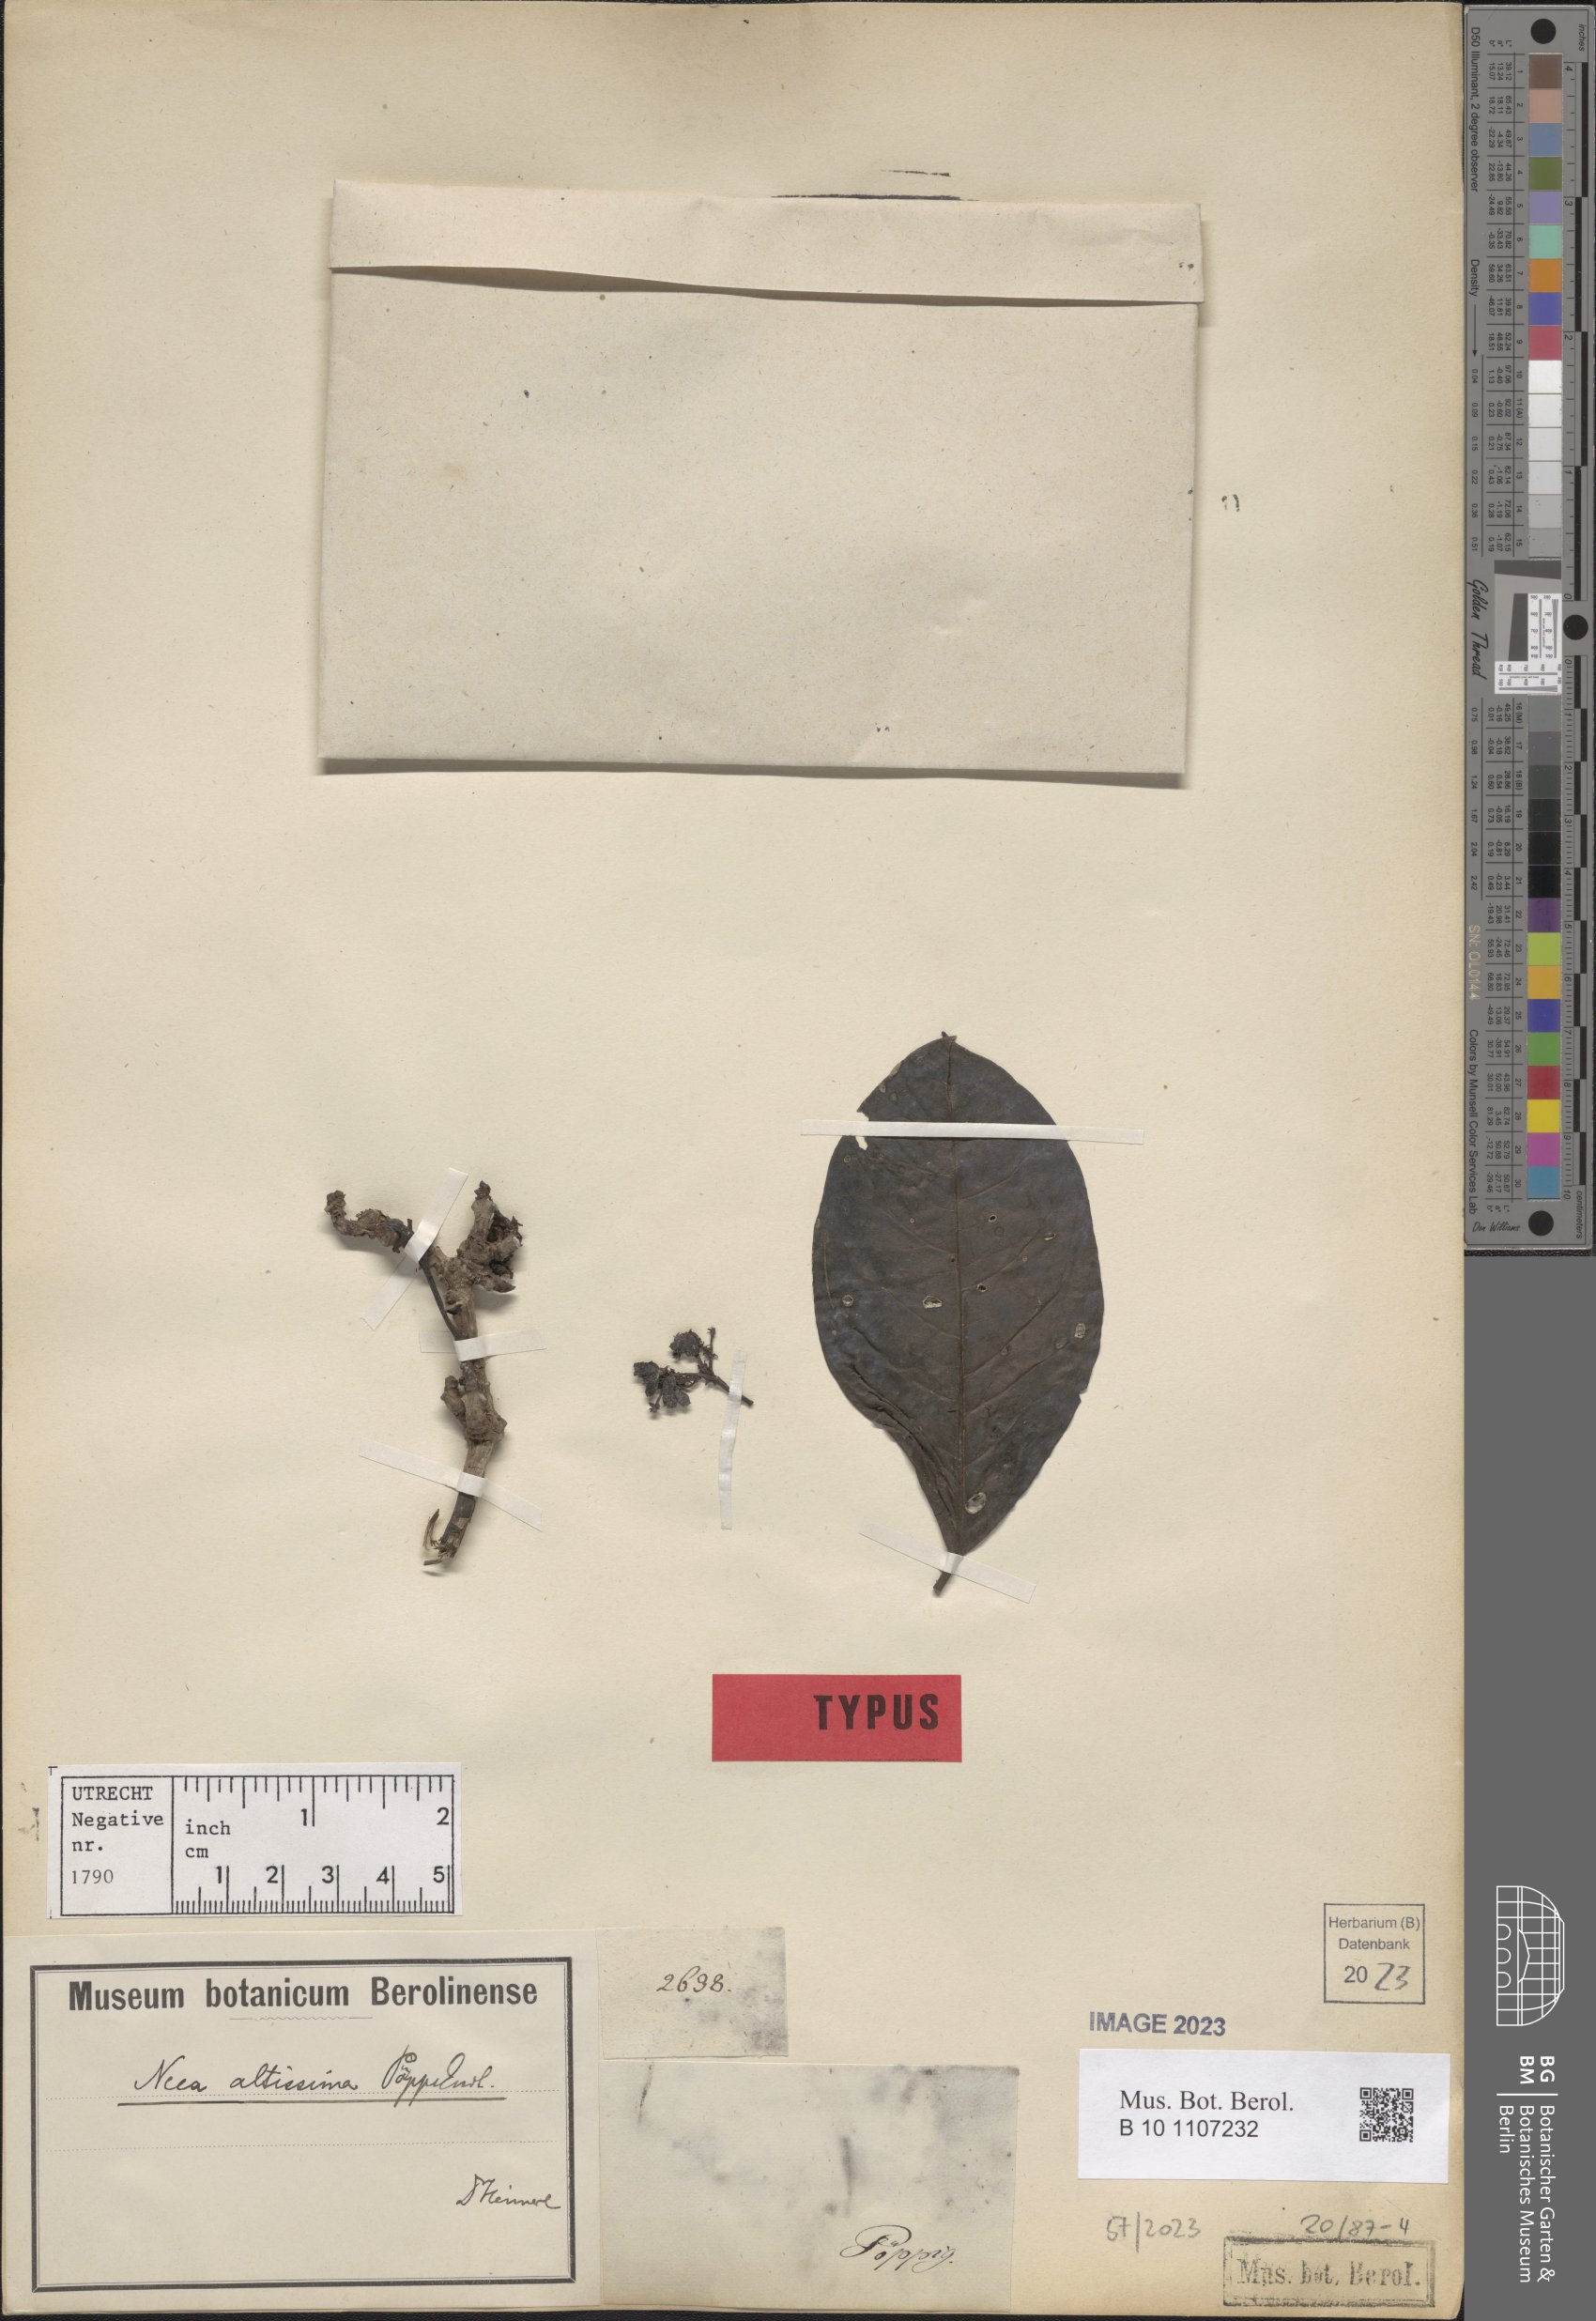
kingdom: Plantae
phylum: Tracheophyta
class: Magnoliopsida
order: Caryophyllales
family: Nyctaginaceae
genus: Neea
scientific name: Neea altissima
